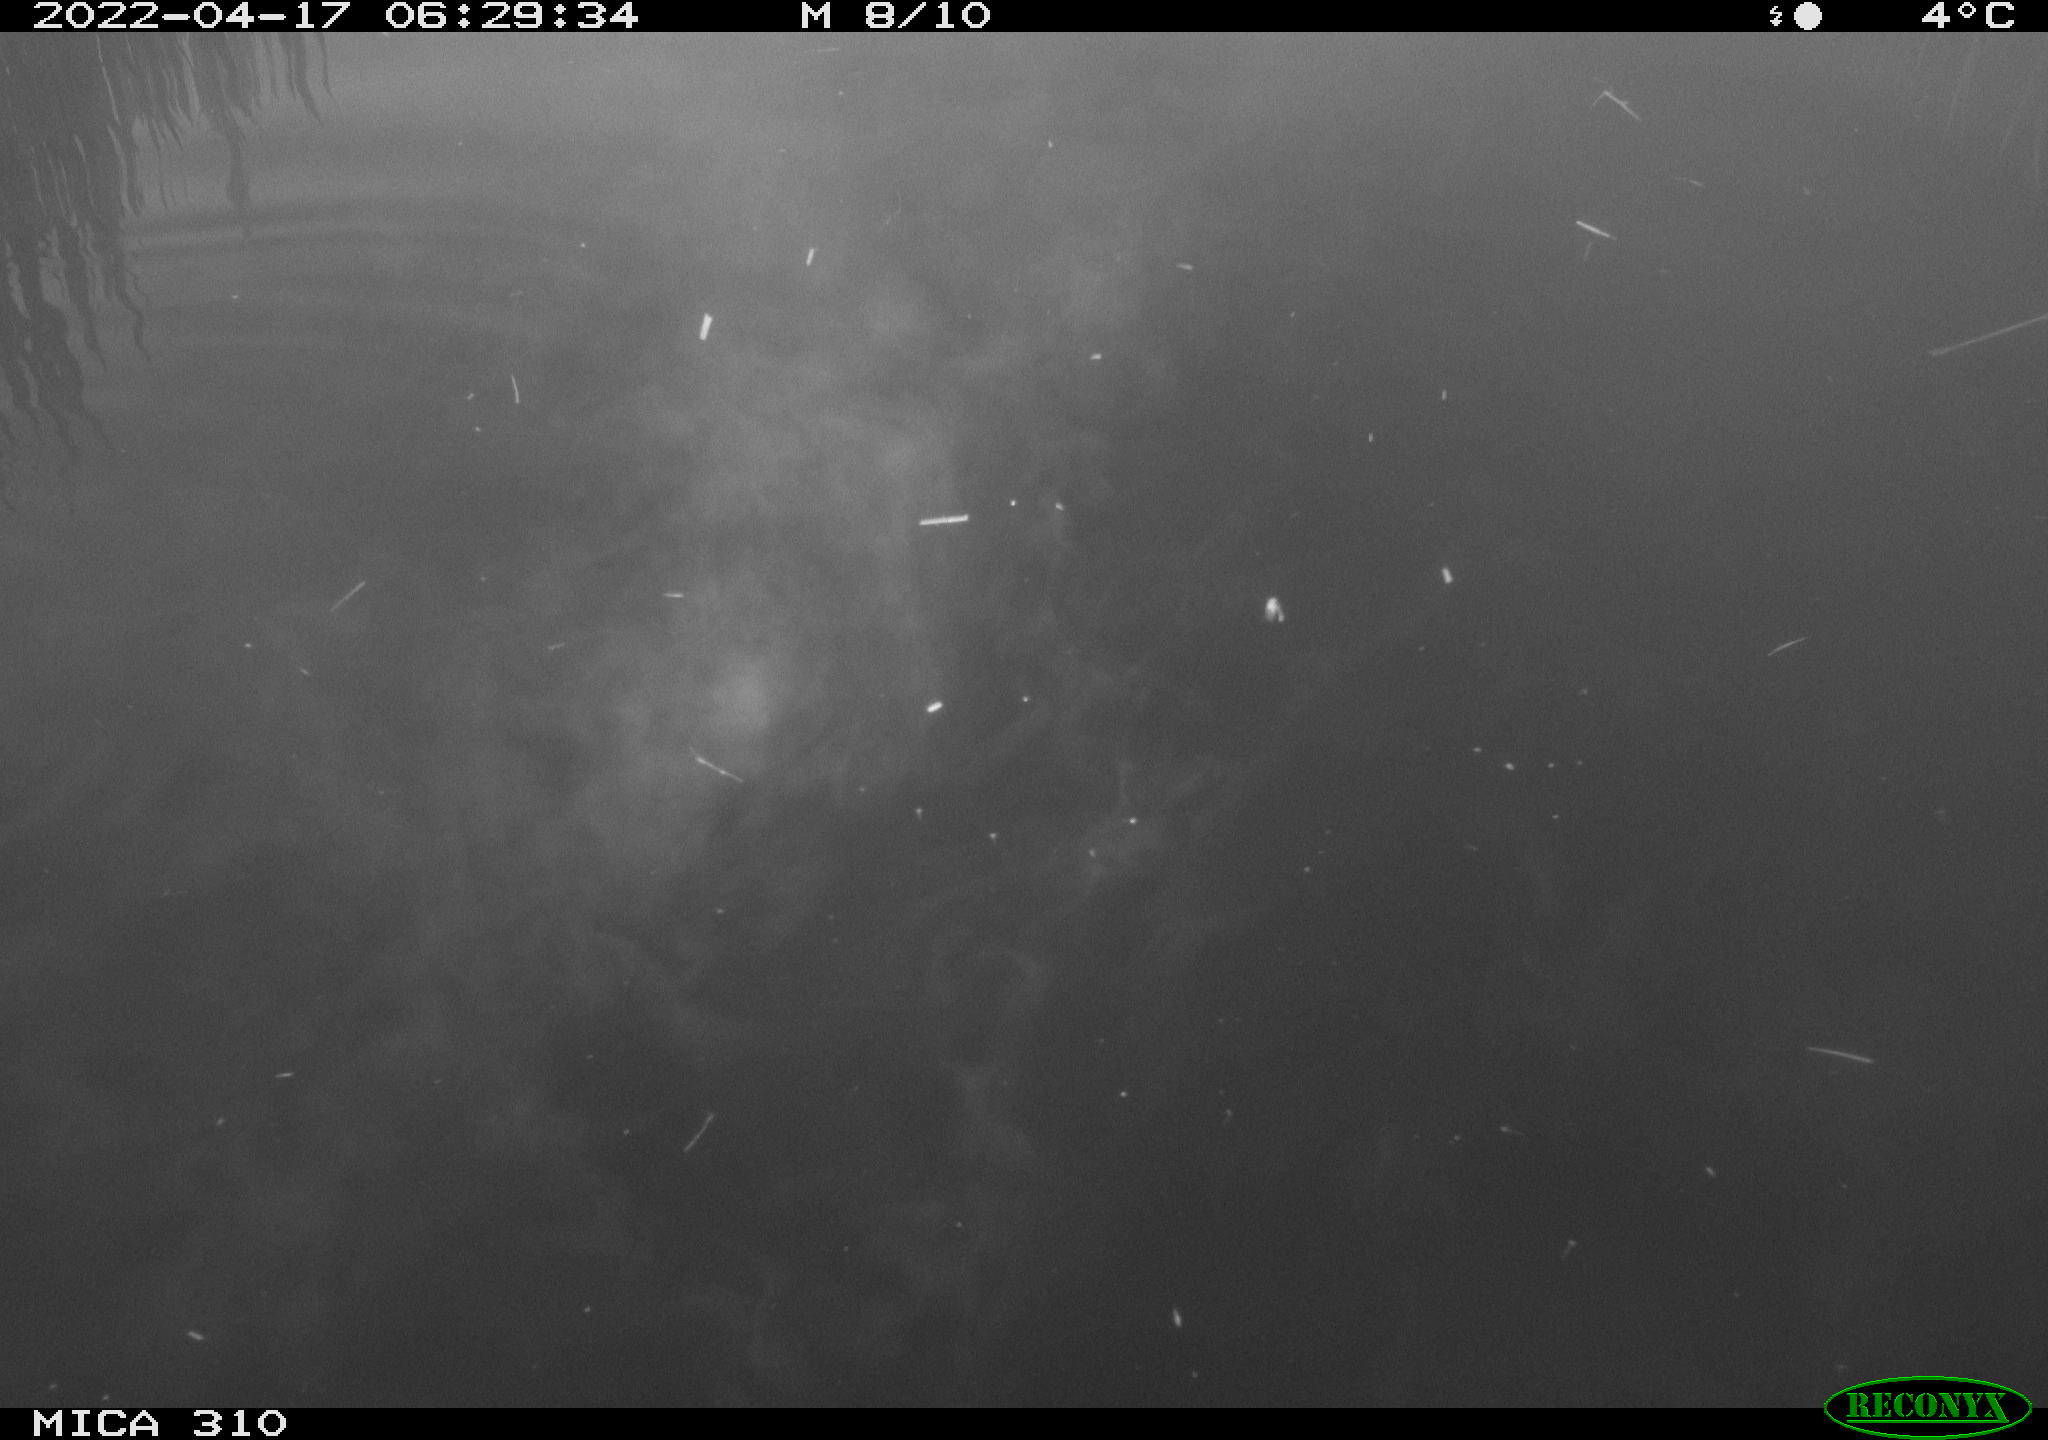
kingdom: Animalia
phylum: Chordata
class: Aves
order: Gruiformes
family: Rallidae
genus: Fulica
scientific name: Fulica atra
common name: Eurasian coot
